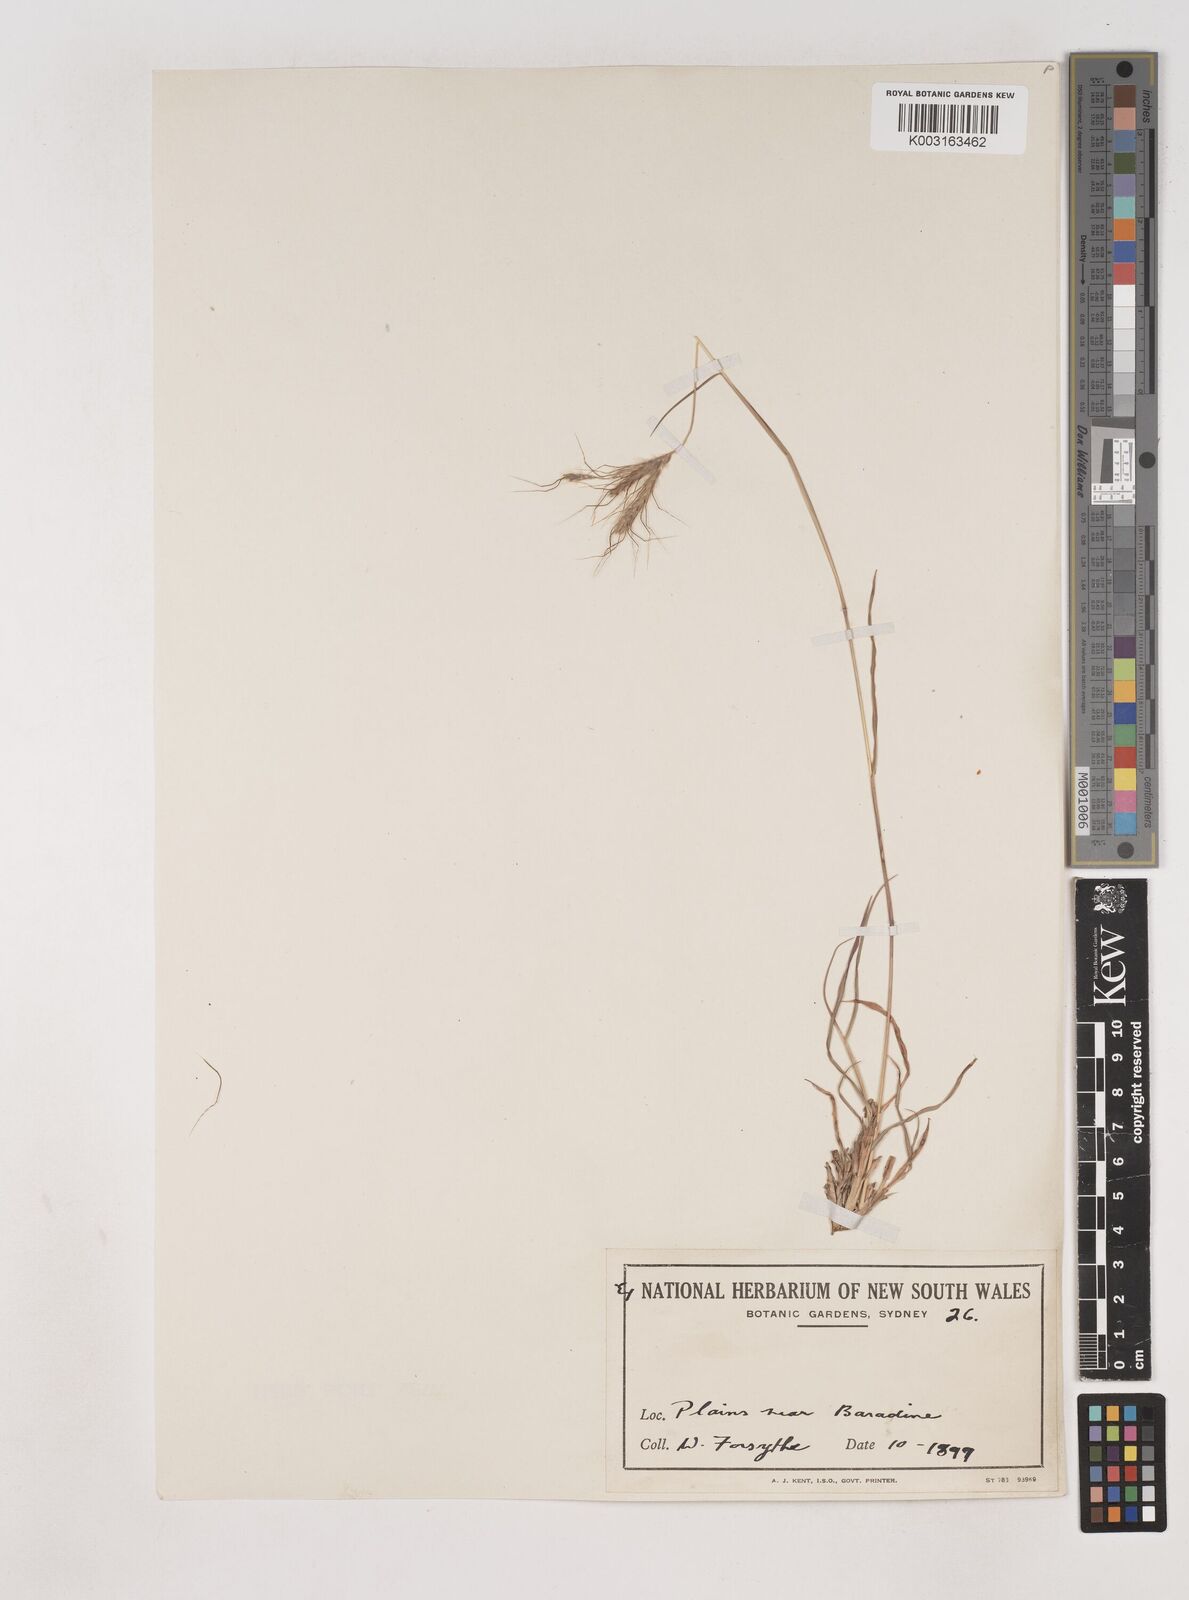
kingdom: Plantae
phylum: Tracheophyta
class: Liliopsida
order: Poales
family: Poaceae
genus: Dichanthium
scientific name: Dichanthium sericeum
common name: Silky bluestem
